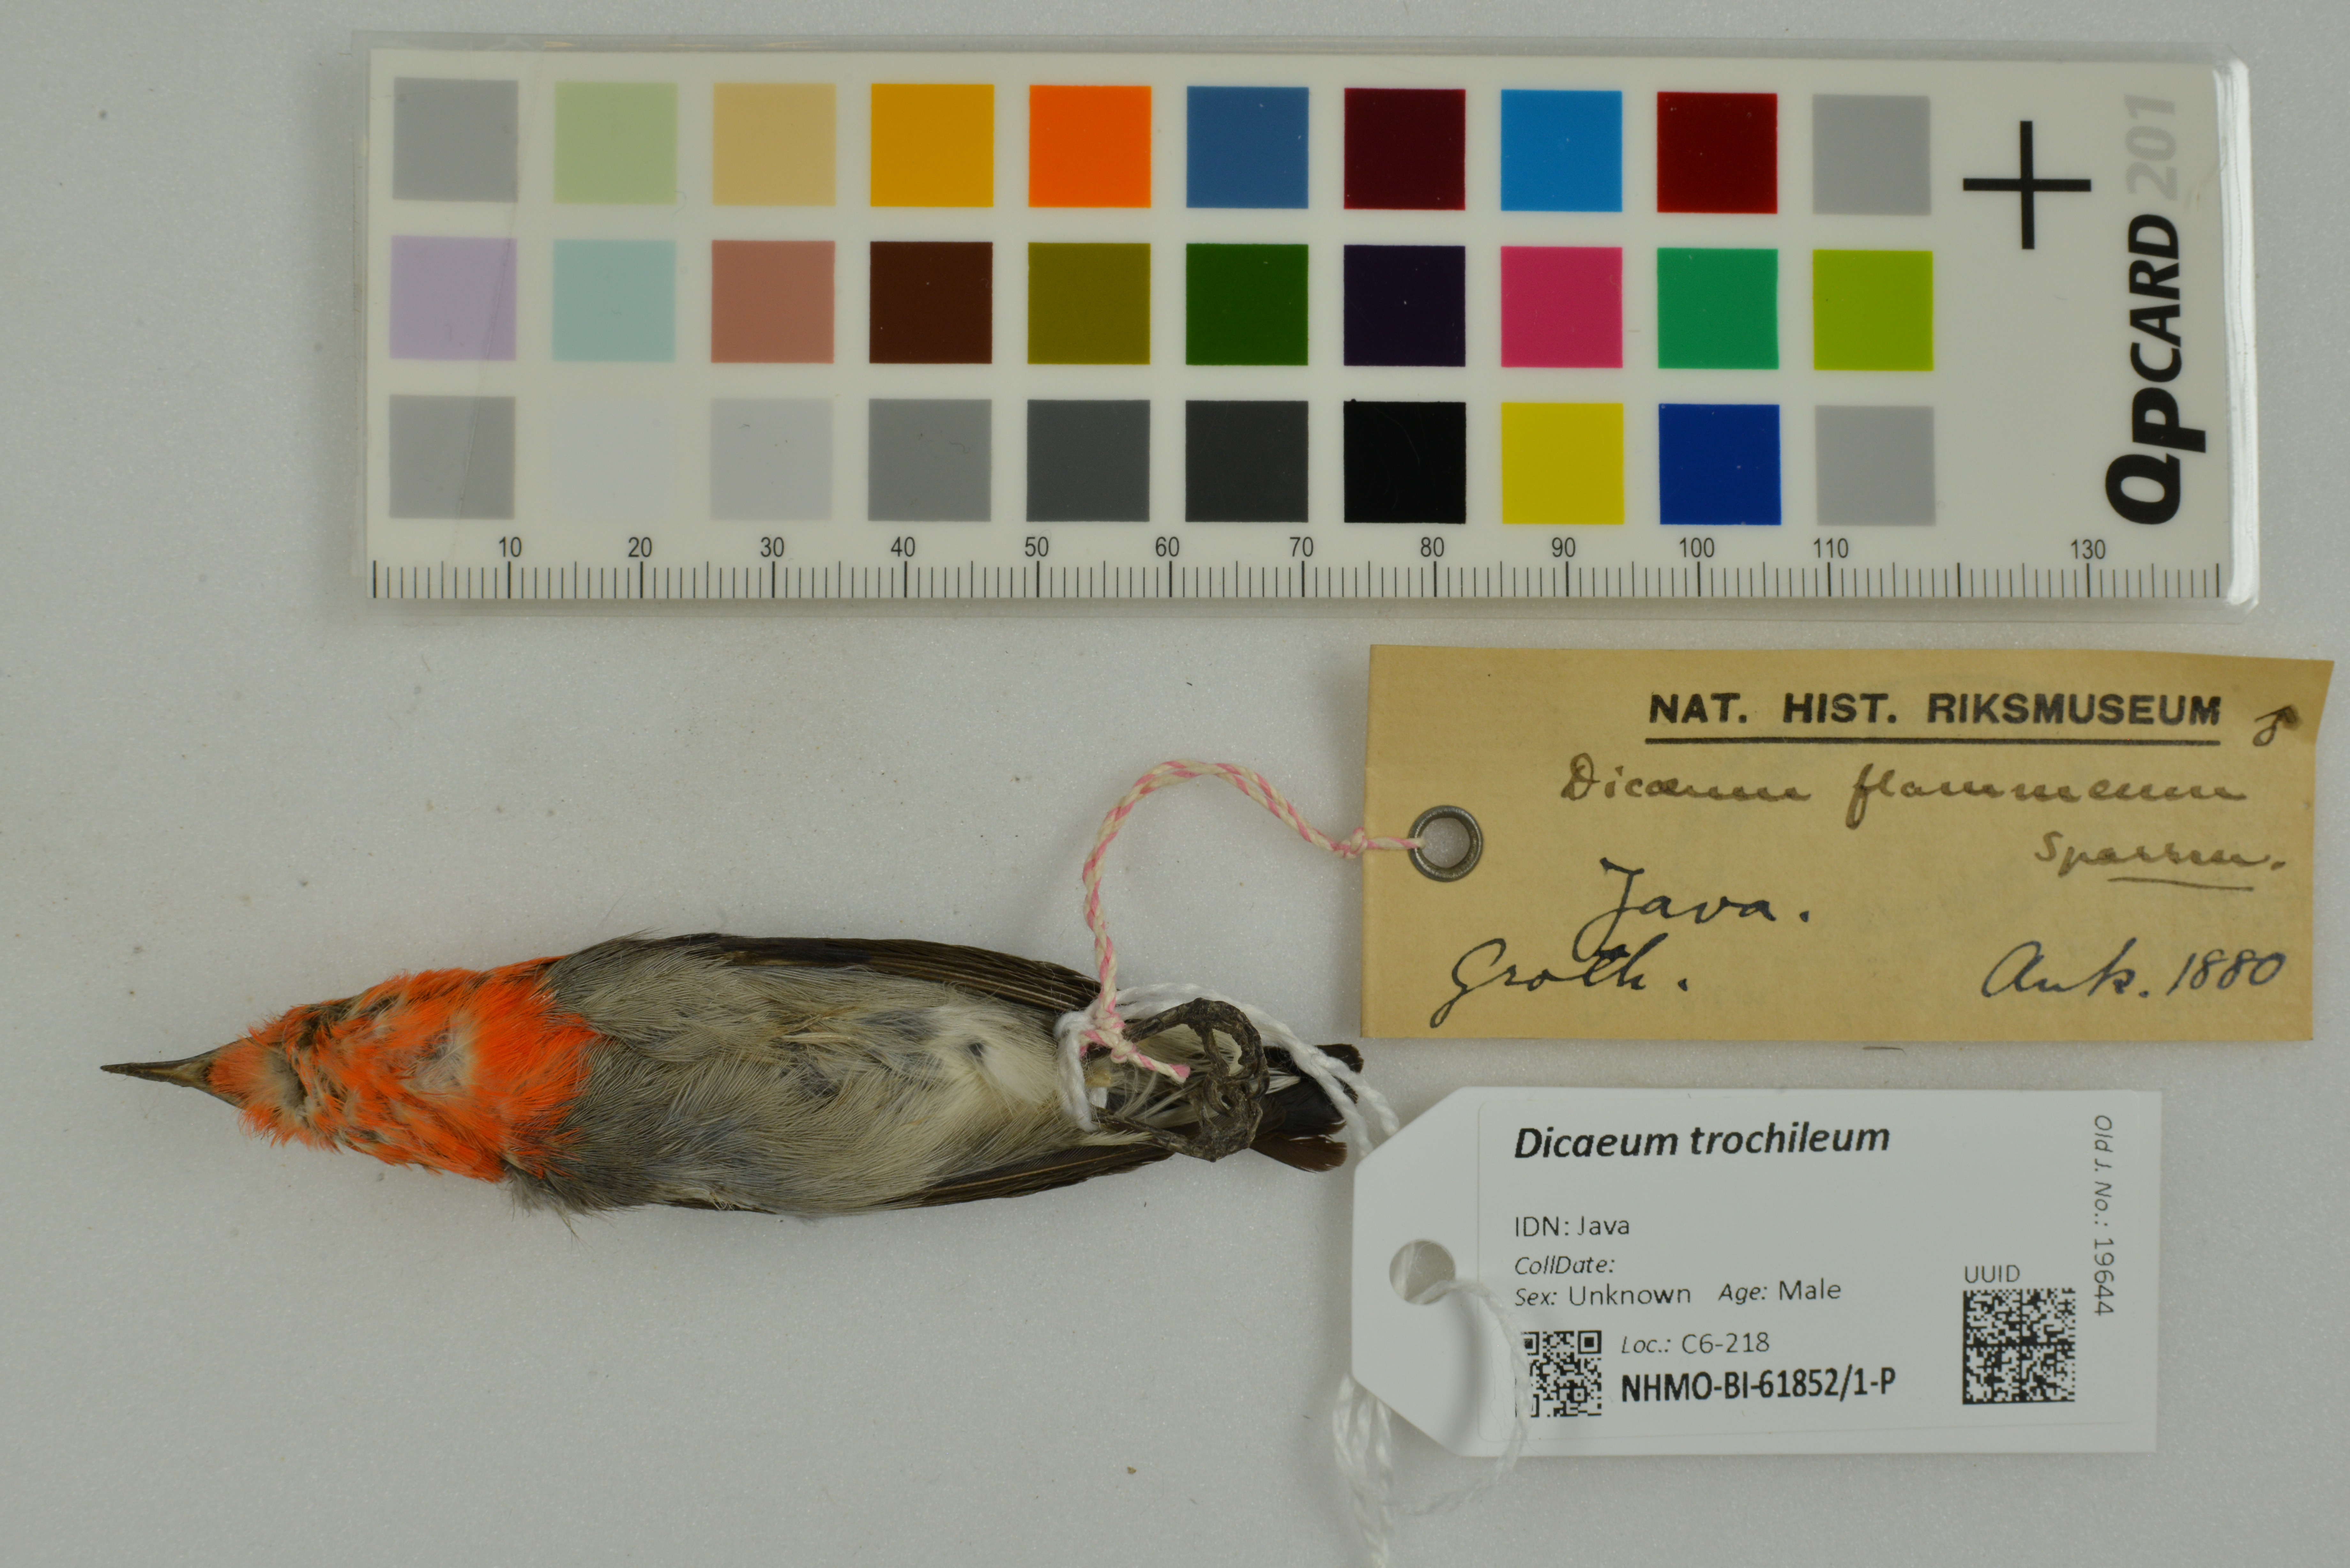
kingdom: Animalia
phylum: Chordata
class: Aves
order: Passeriformes
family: Dicaeidae
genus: Dicaeum
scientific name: Dicaeum trochileum
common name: Scarlet-headed flowerpecker
